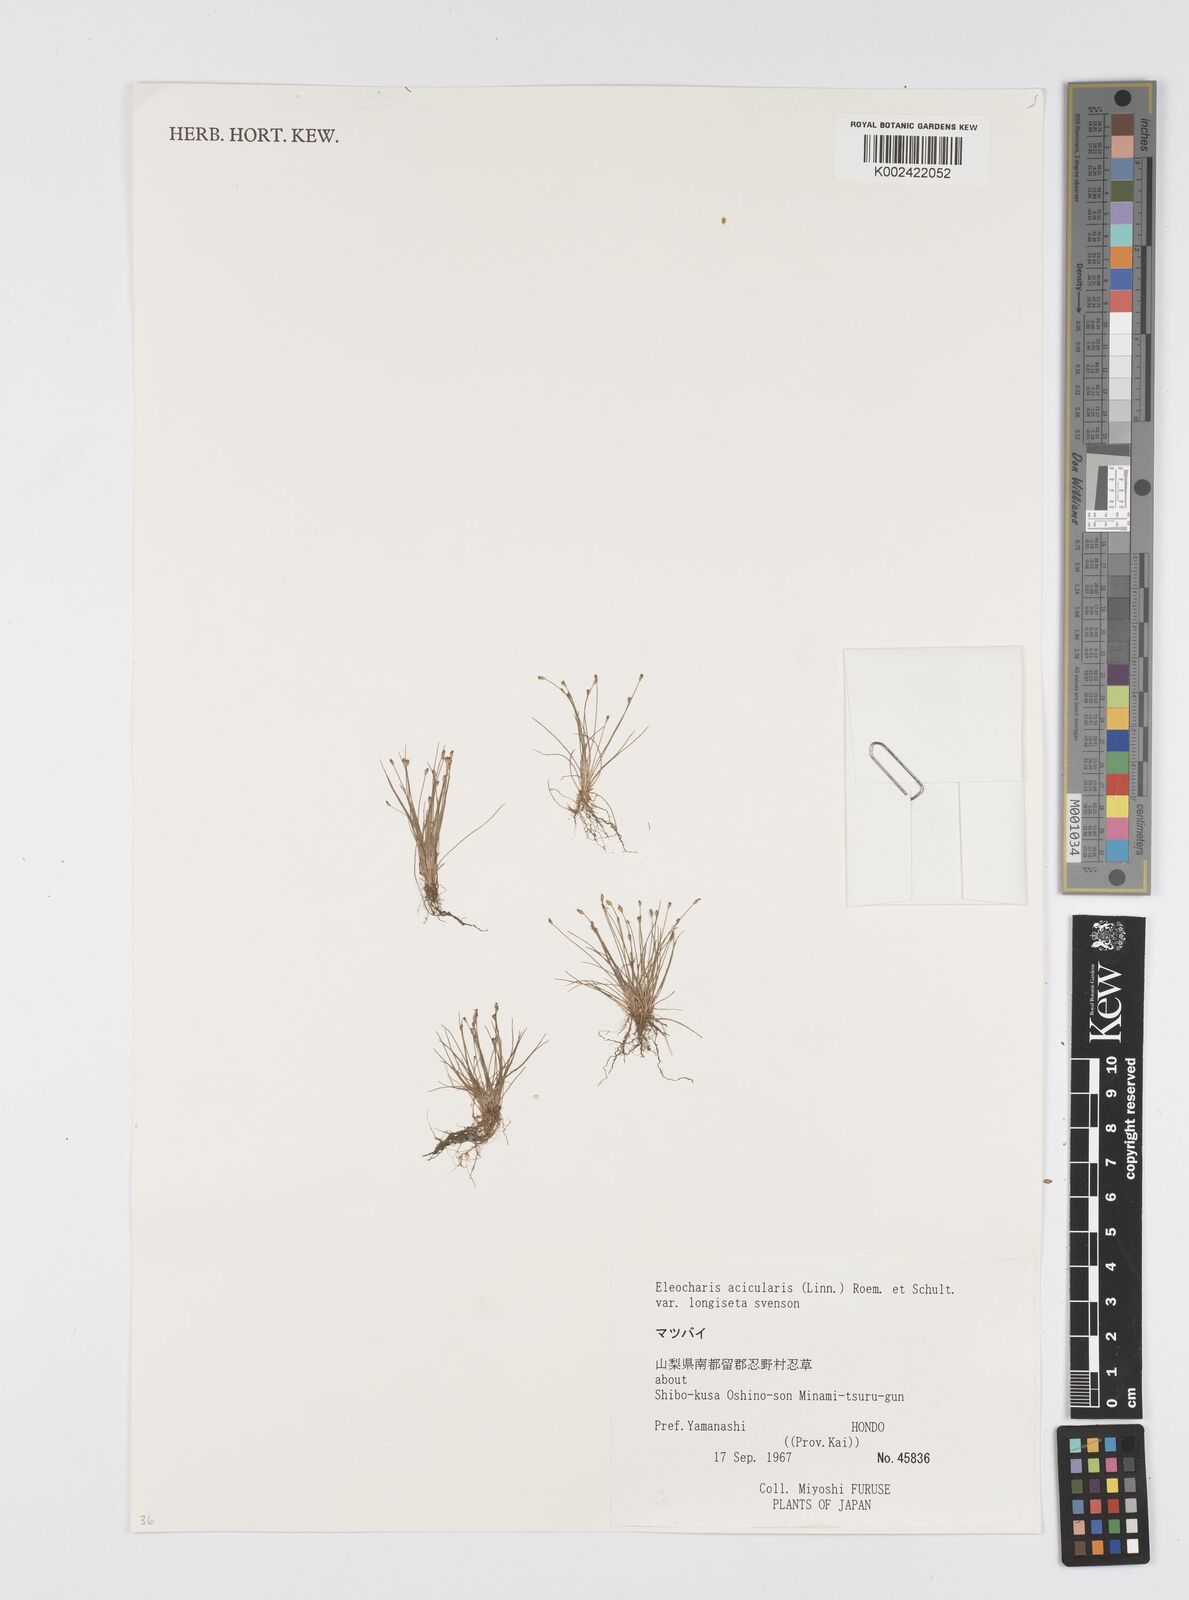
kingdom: Plantae
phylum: Tracheophyta
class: Liliopsida
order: Poales
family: Cyperaceae
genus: Eleocharis
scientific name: Eleocharis acicularis
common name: Needle spike-rush
